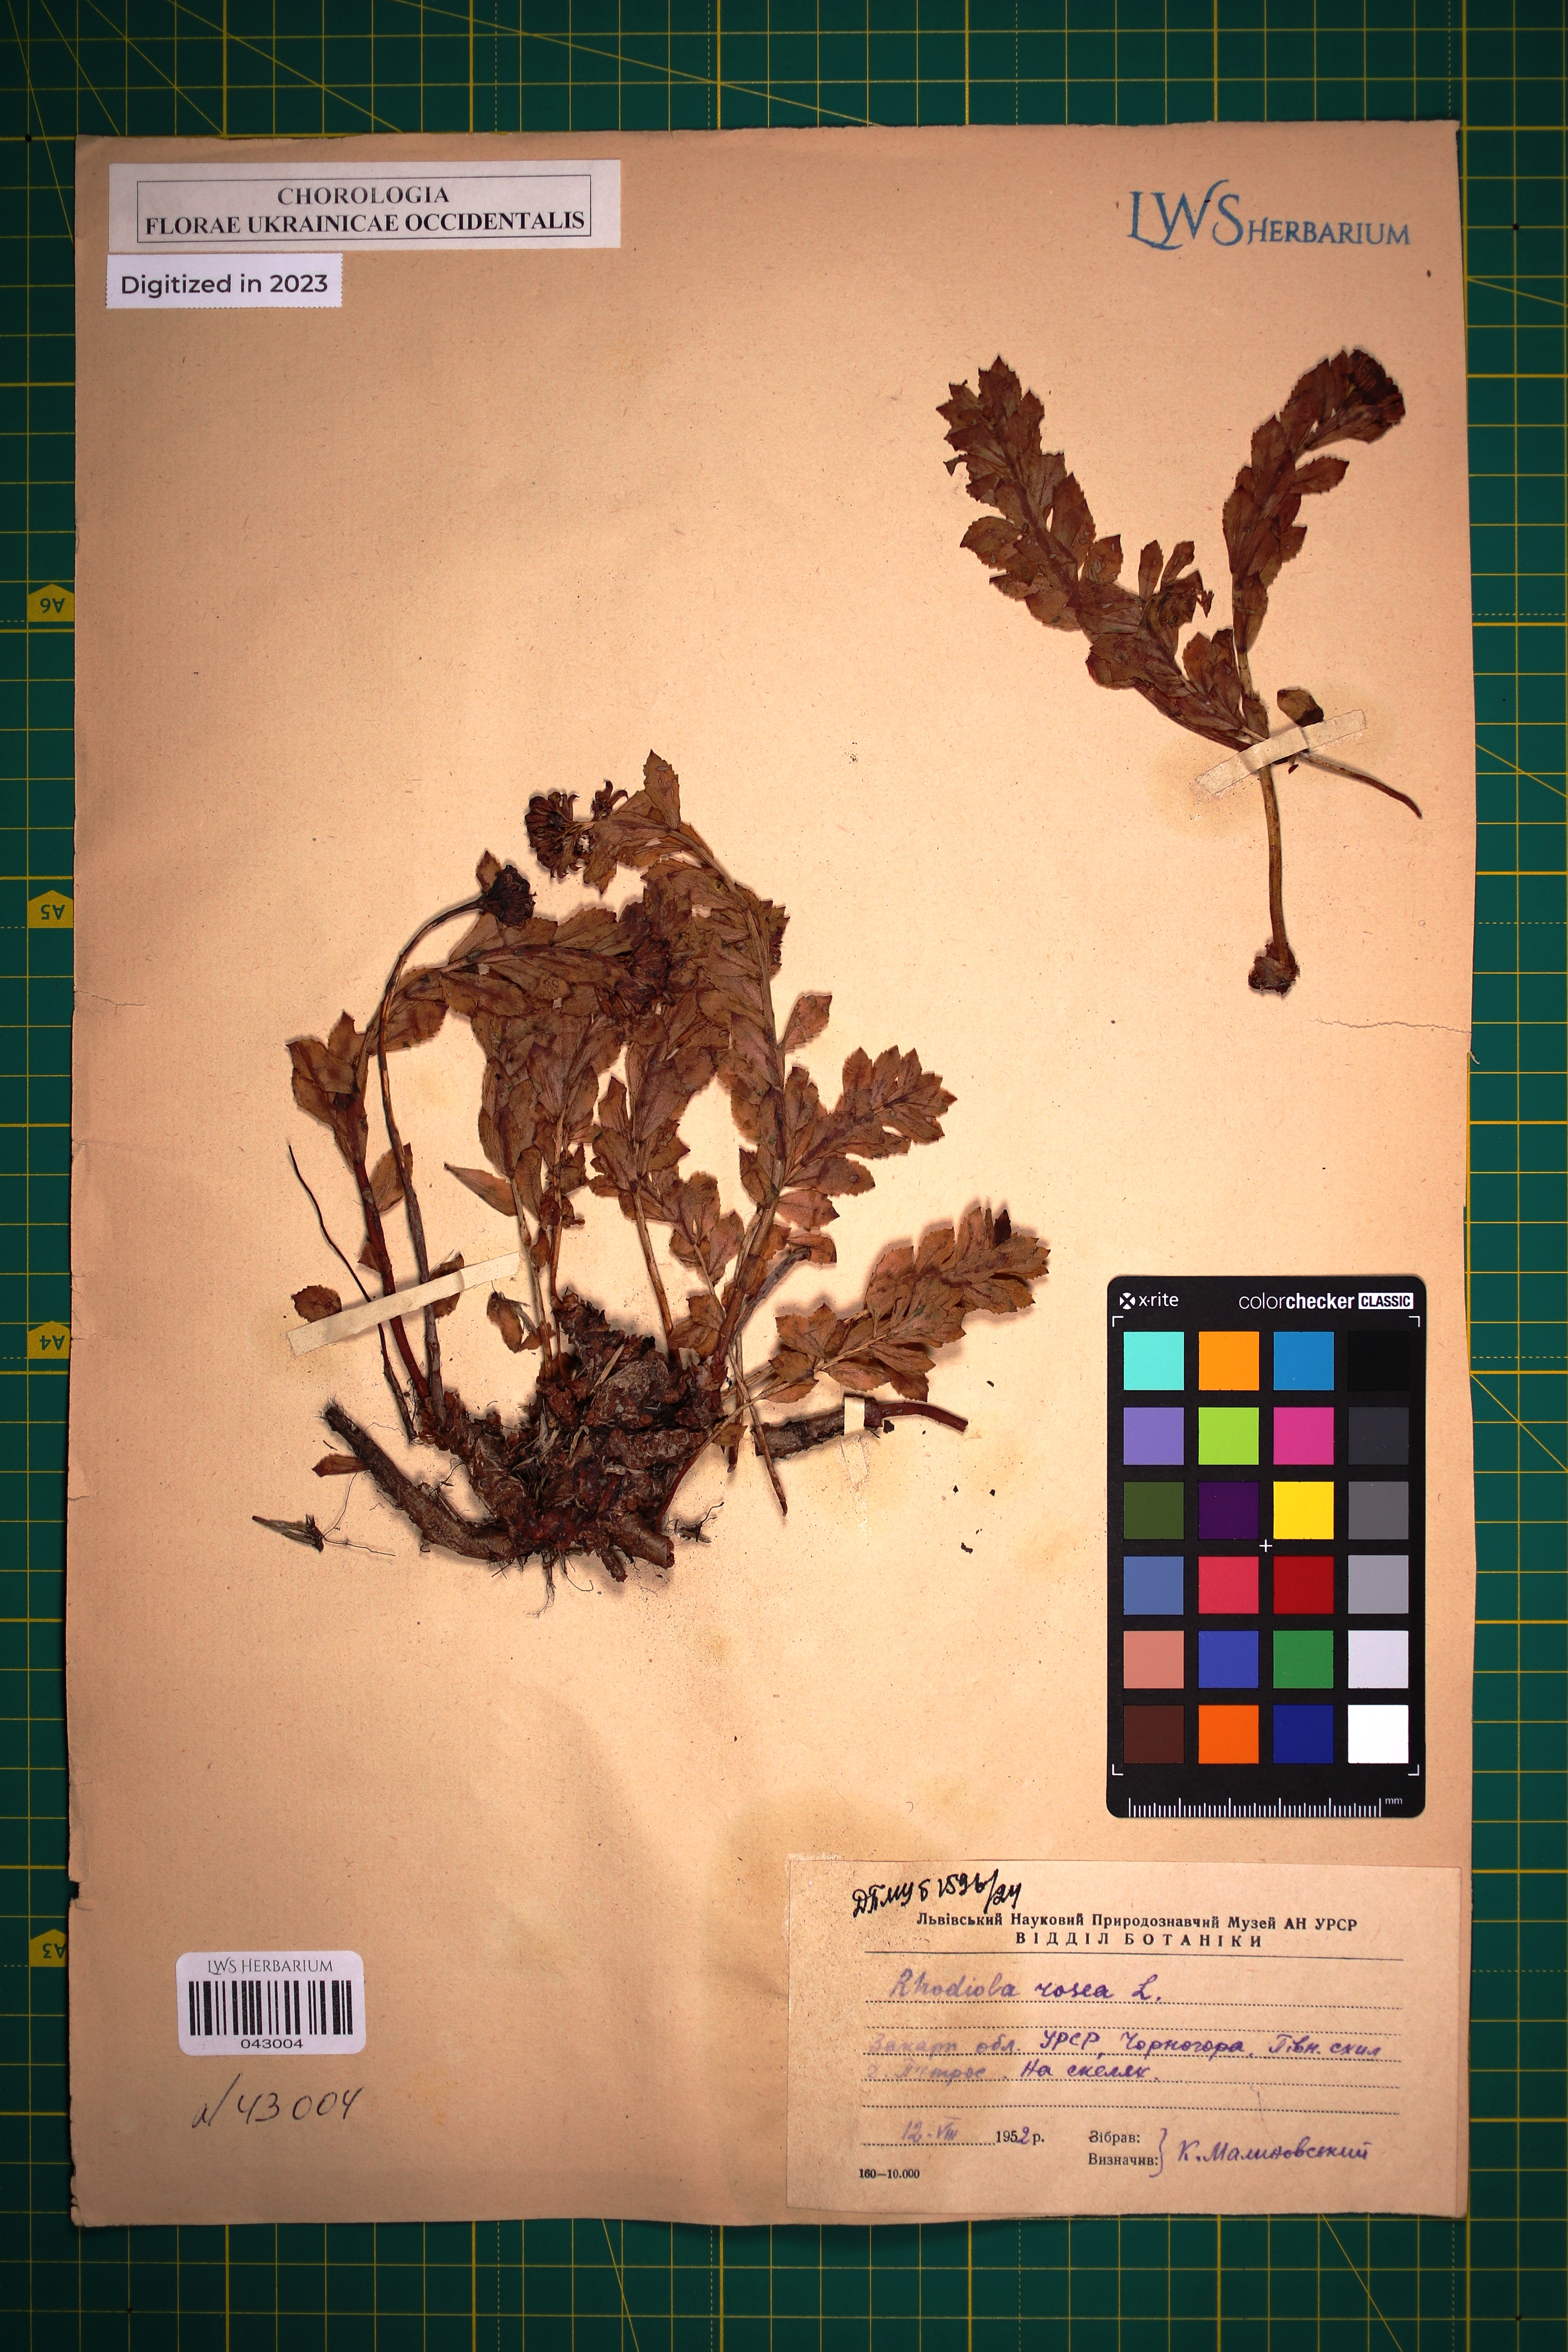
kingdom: Plantae
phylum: Tracheophyta
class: Magnoliopsida
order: Saxifragales
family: Crassulaceae
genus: Rhodiola
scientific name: Rhodiola rosea
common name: Roseroot
